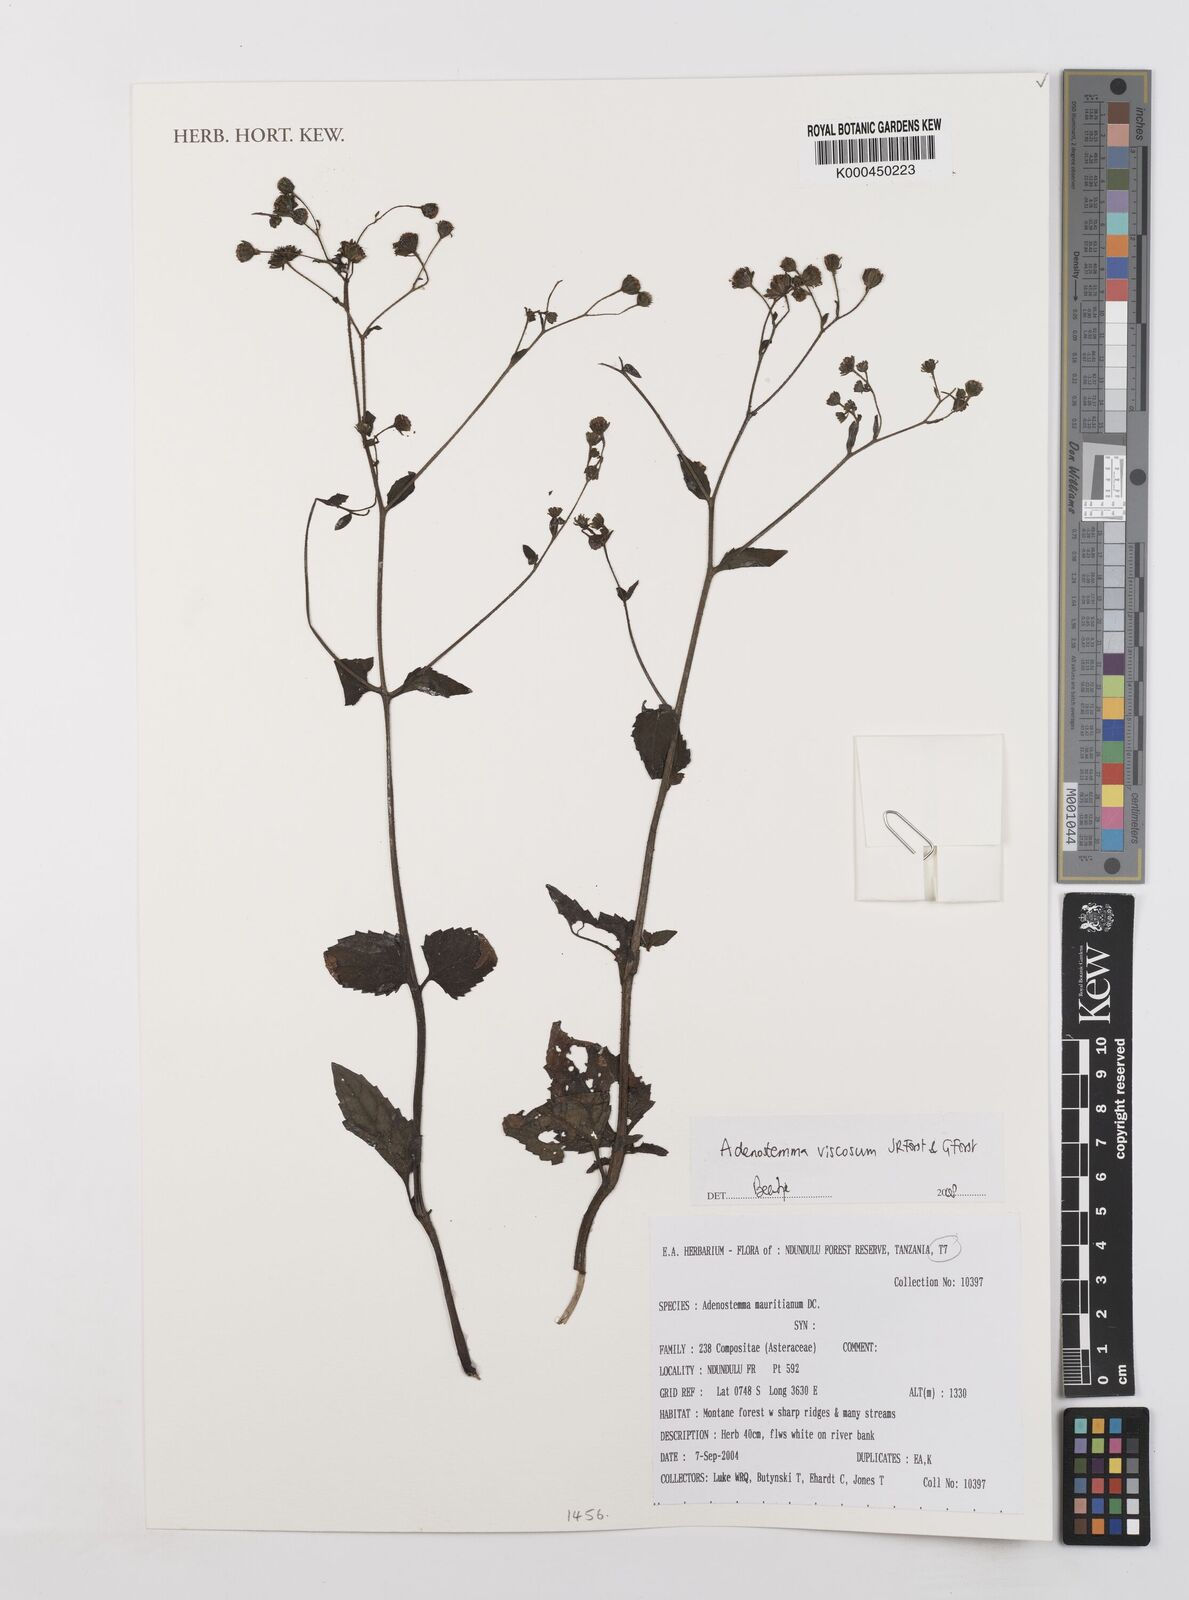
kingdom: Plantae
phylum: Tracheophyta
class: Magnoliopsida
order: Asterales
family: Asteraceae
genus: Adenostemma
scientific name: Adenostemma viscosum
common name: Dungweed
